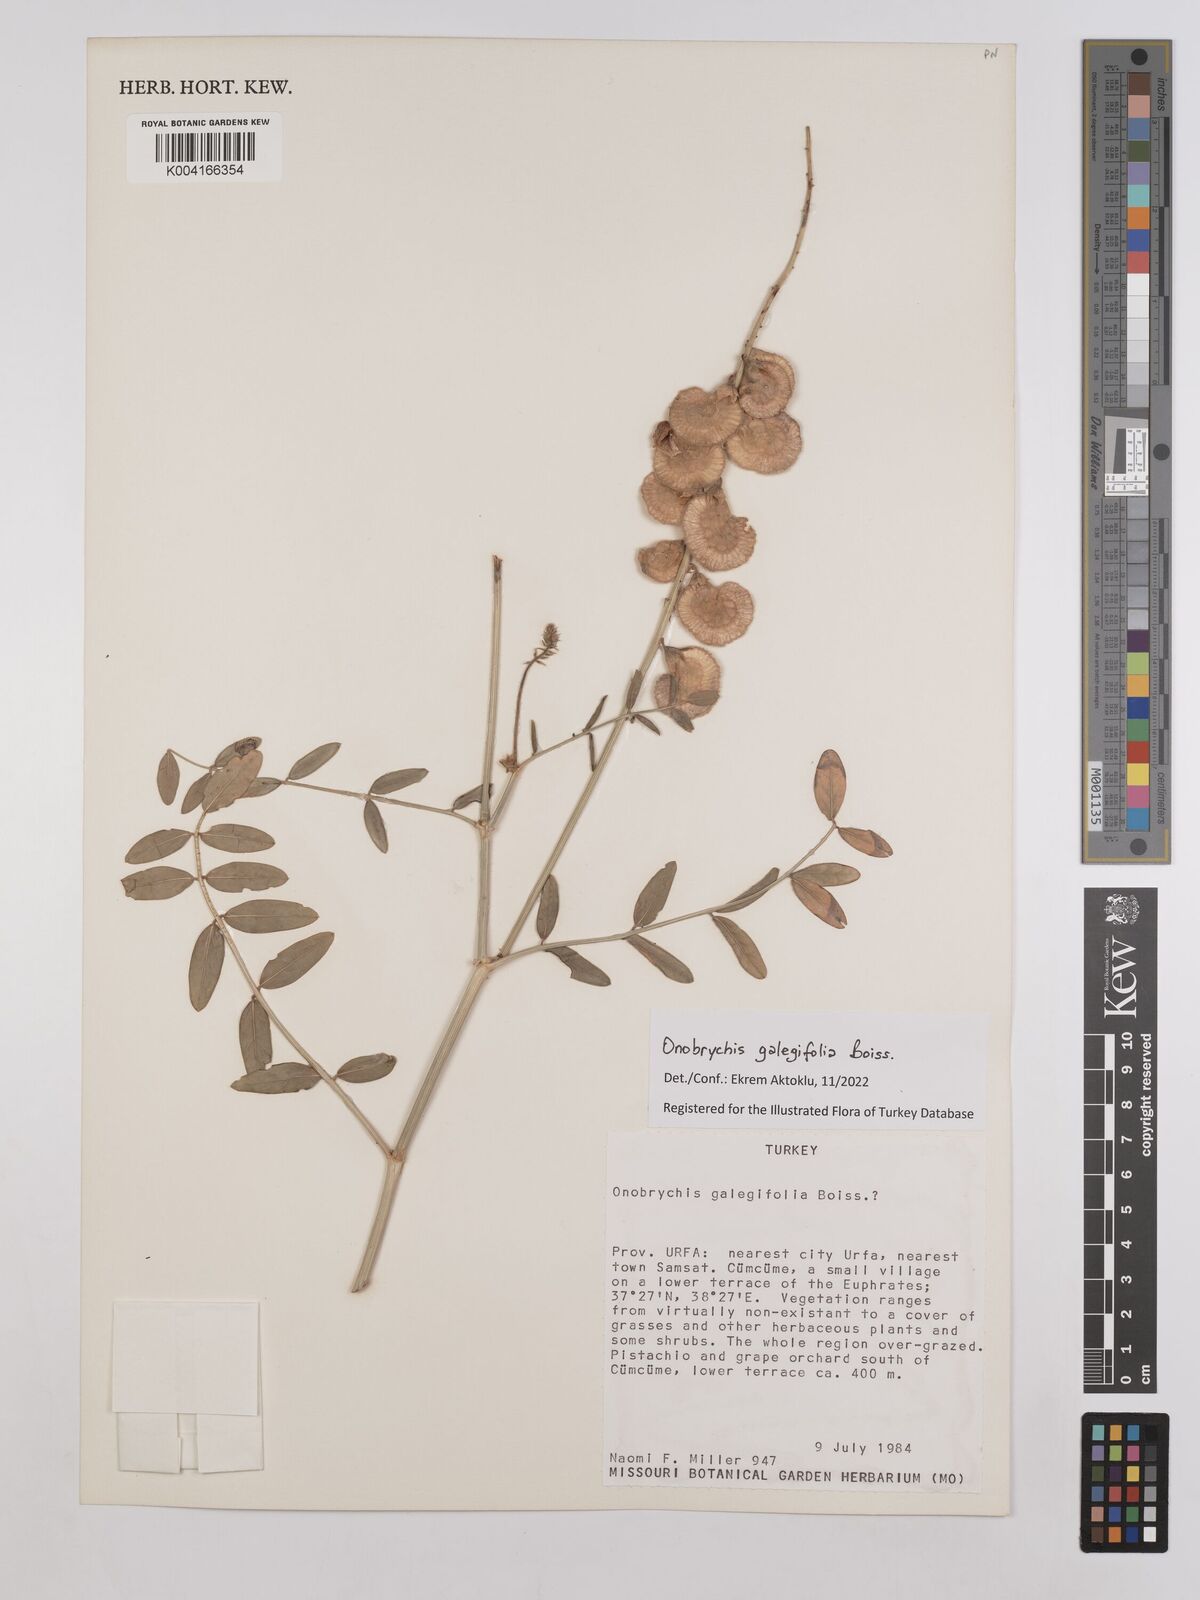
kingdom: Plantae
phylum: Tracheophyta
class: Magnoliopsida
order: Fabales
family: Fabaceae
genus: Onobrychis
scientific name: Onobrychis galegifolia
